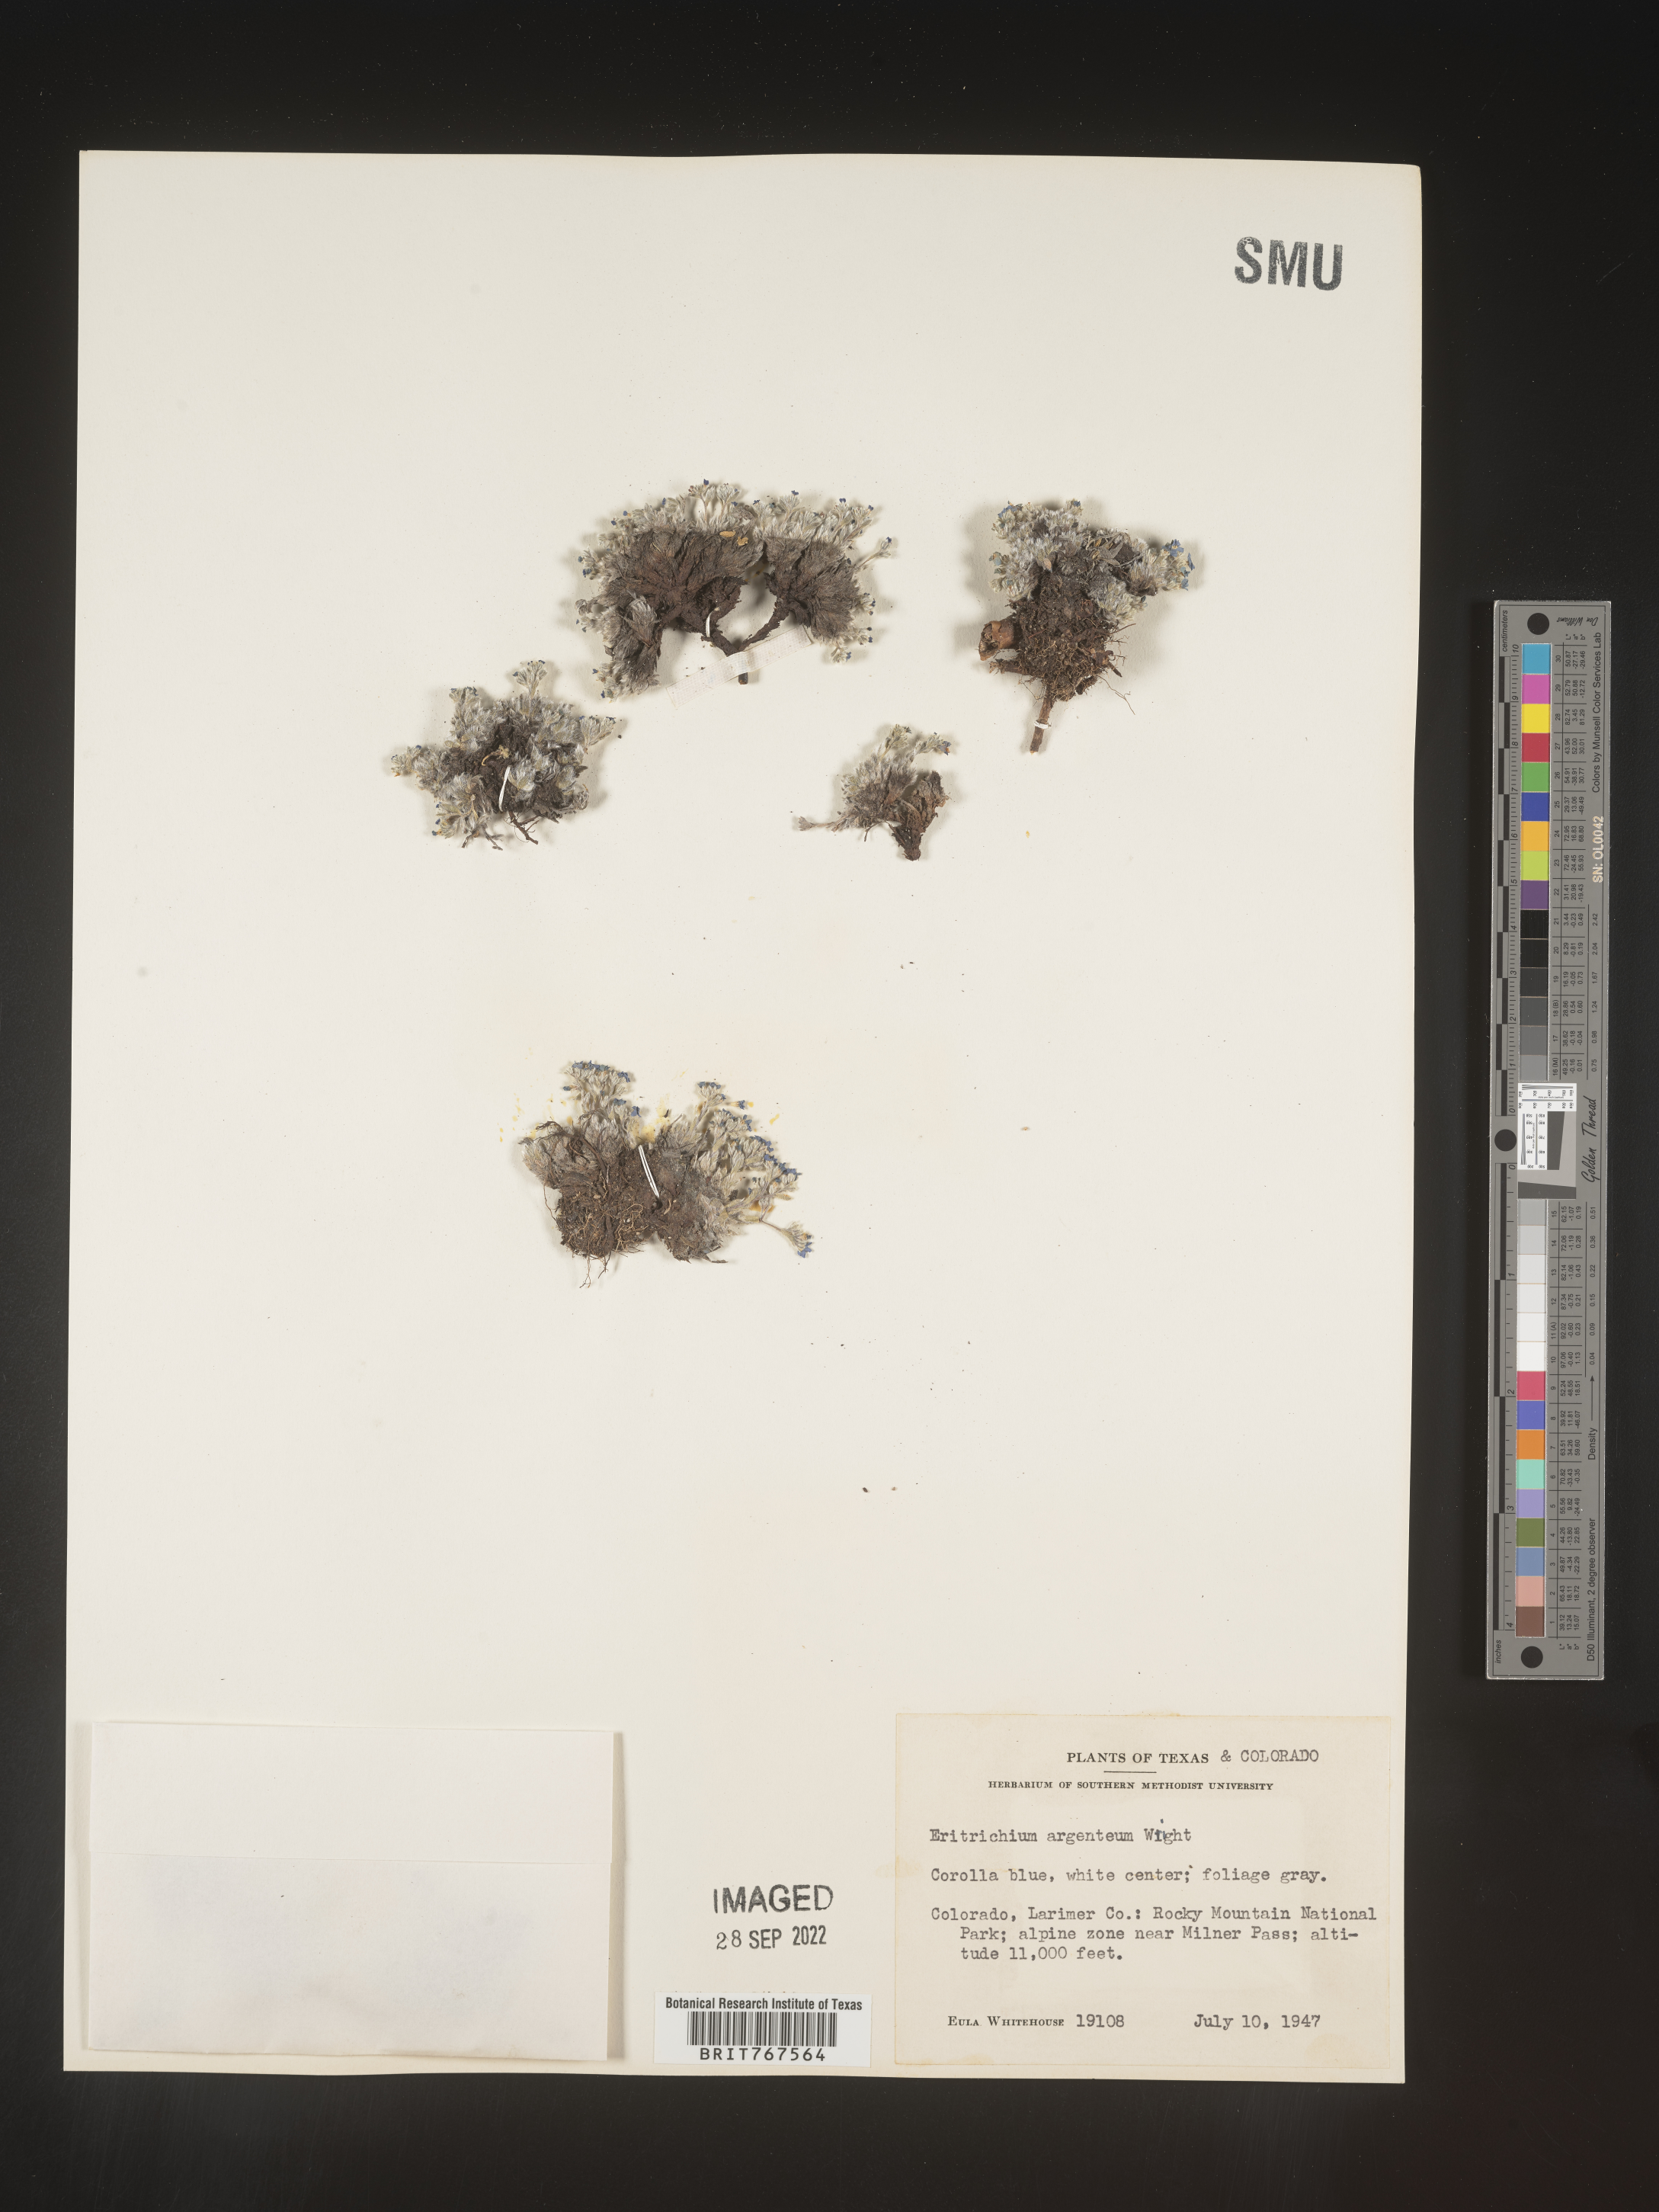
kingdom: Plantae
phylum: Tracheophyta
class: Magnoliopsida
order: Boraginales
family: Boraginaceae
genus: Eritrichium
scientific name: Eritrichium
